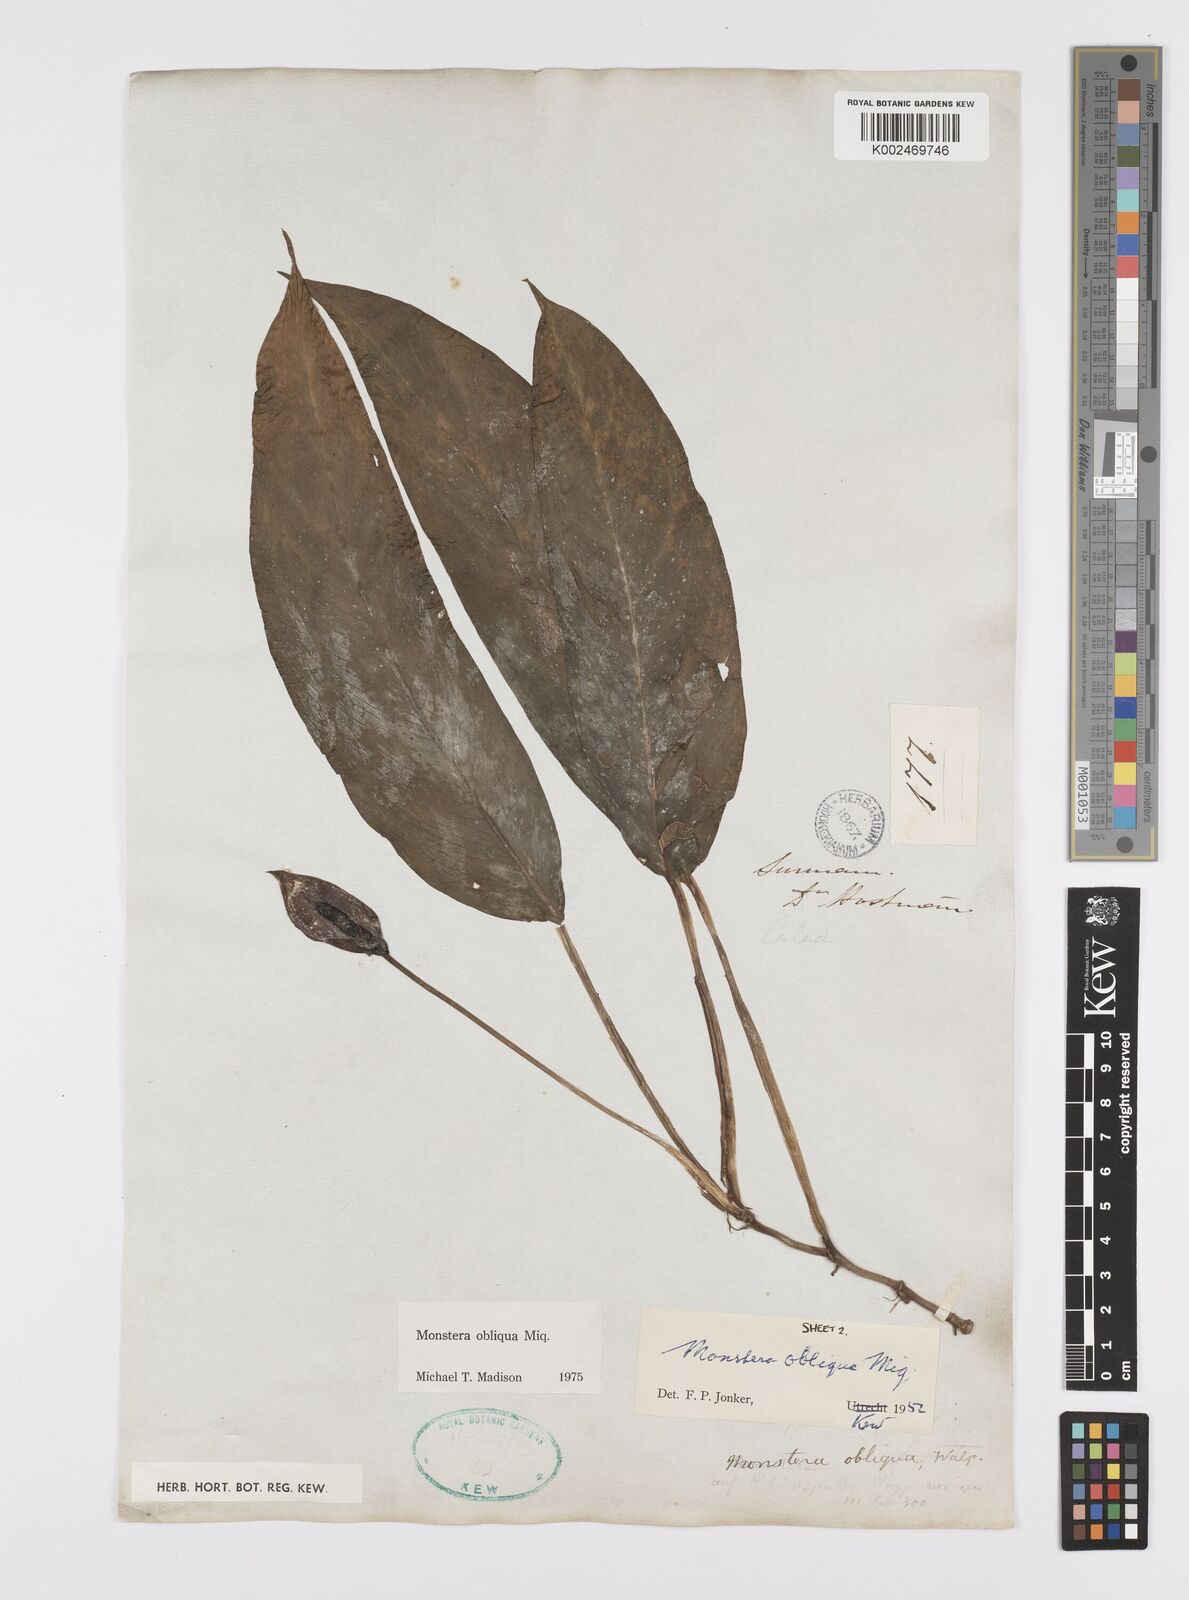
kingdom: Plantae
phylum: Tracheophyta
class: Liliopsida
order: Alismatales
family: Araceae
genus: Monstera
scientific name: Monstera obliqua
